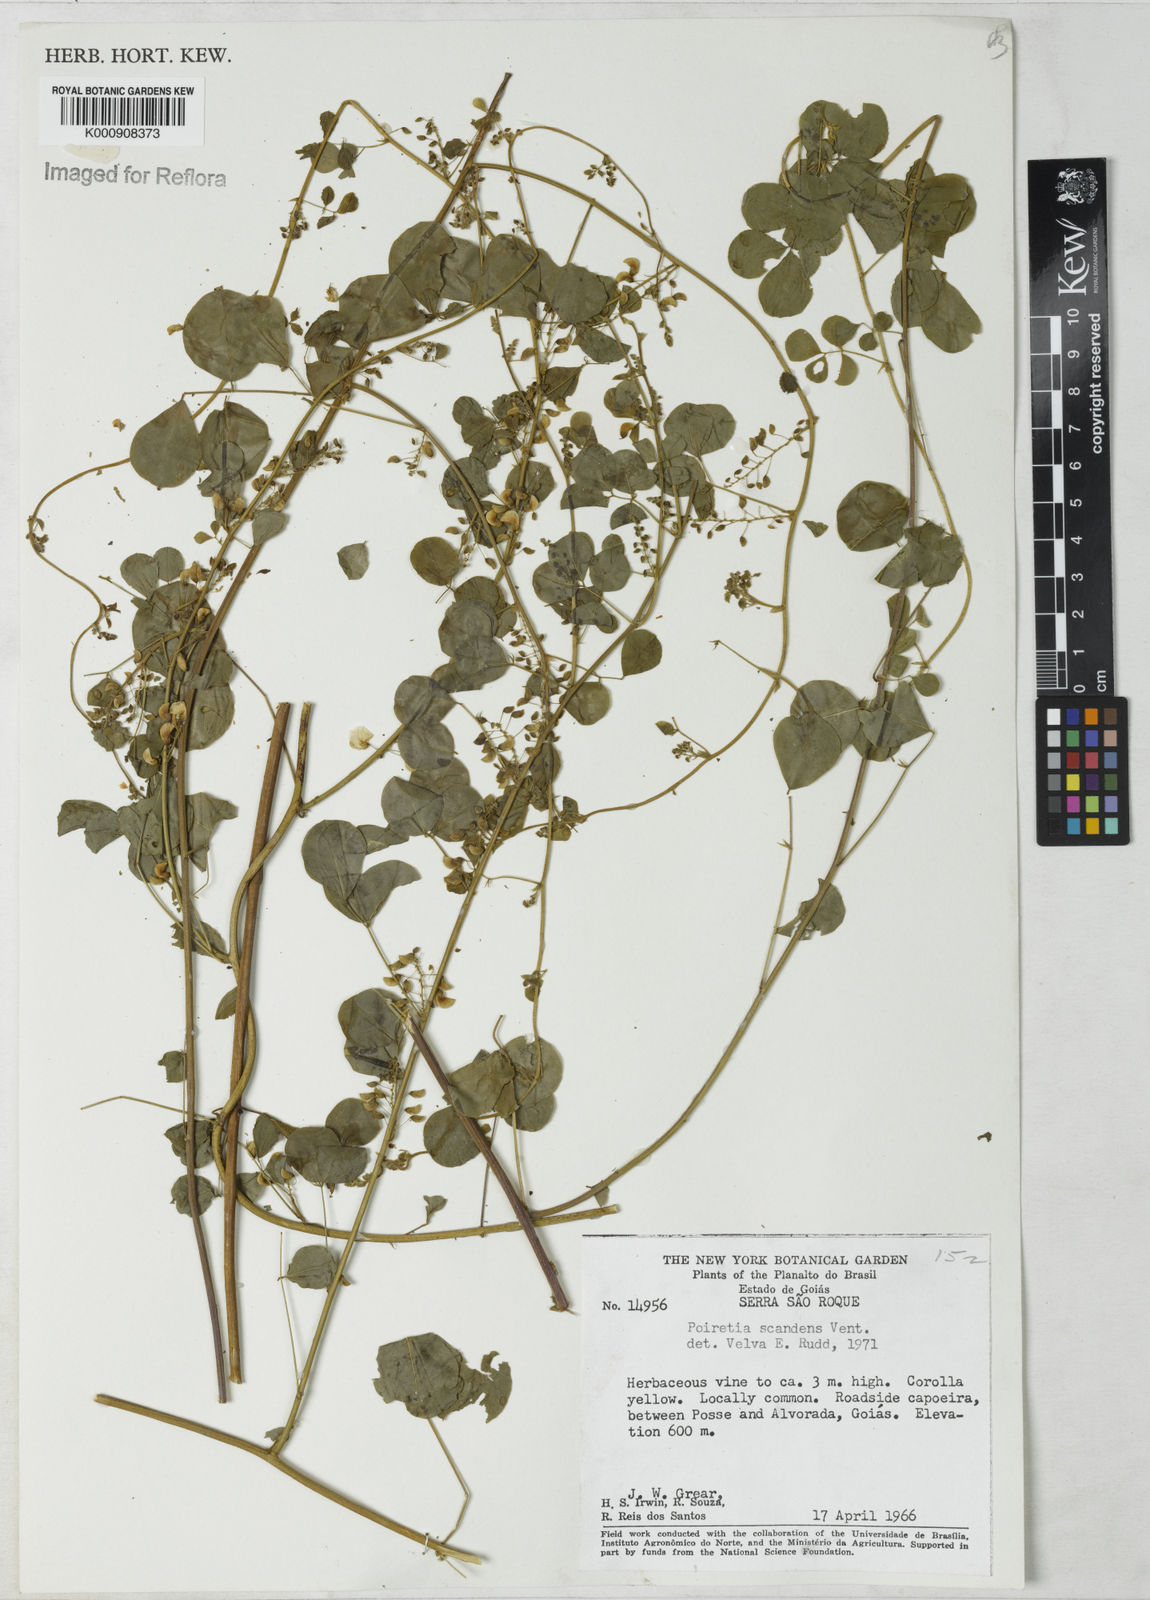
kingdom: Plantae
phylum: Tracheophyta
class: Magnoliopsida
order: Fabales
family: Fabaceae
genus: Poiretia
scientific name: Poiretia punctata
